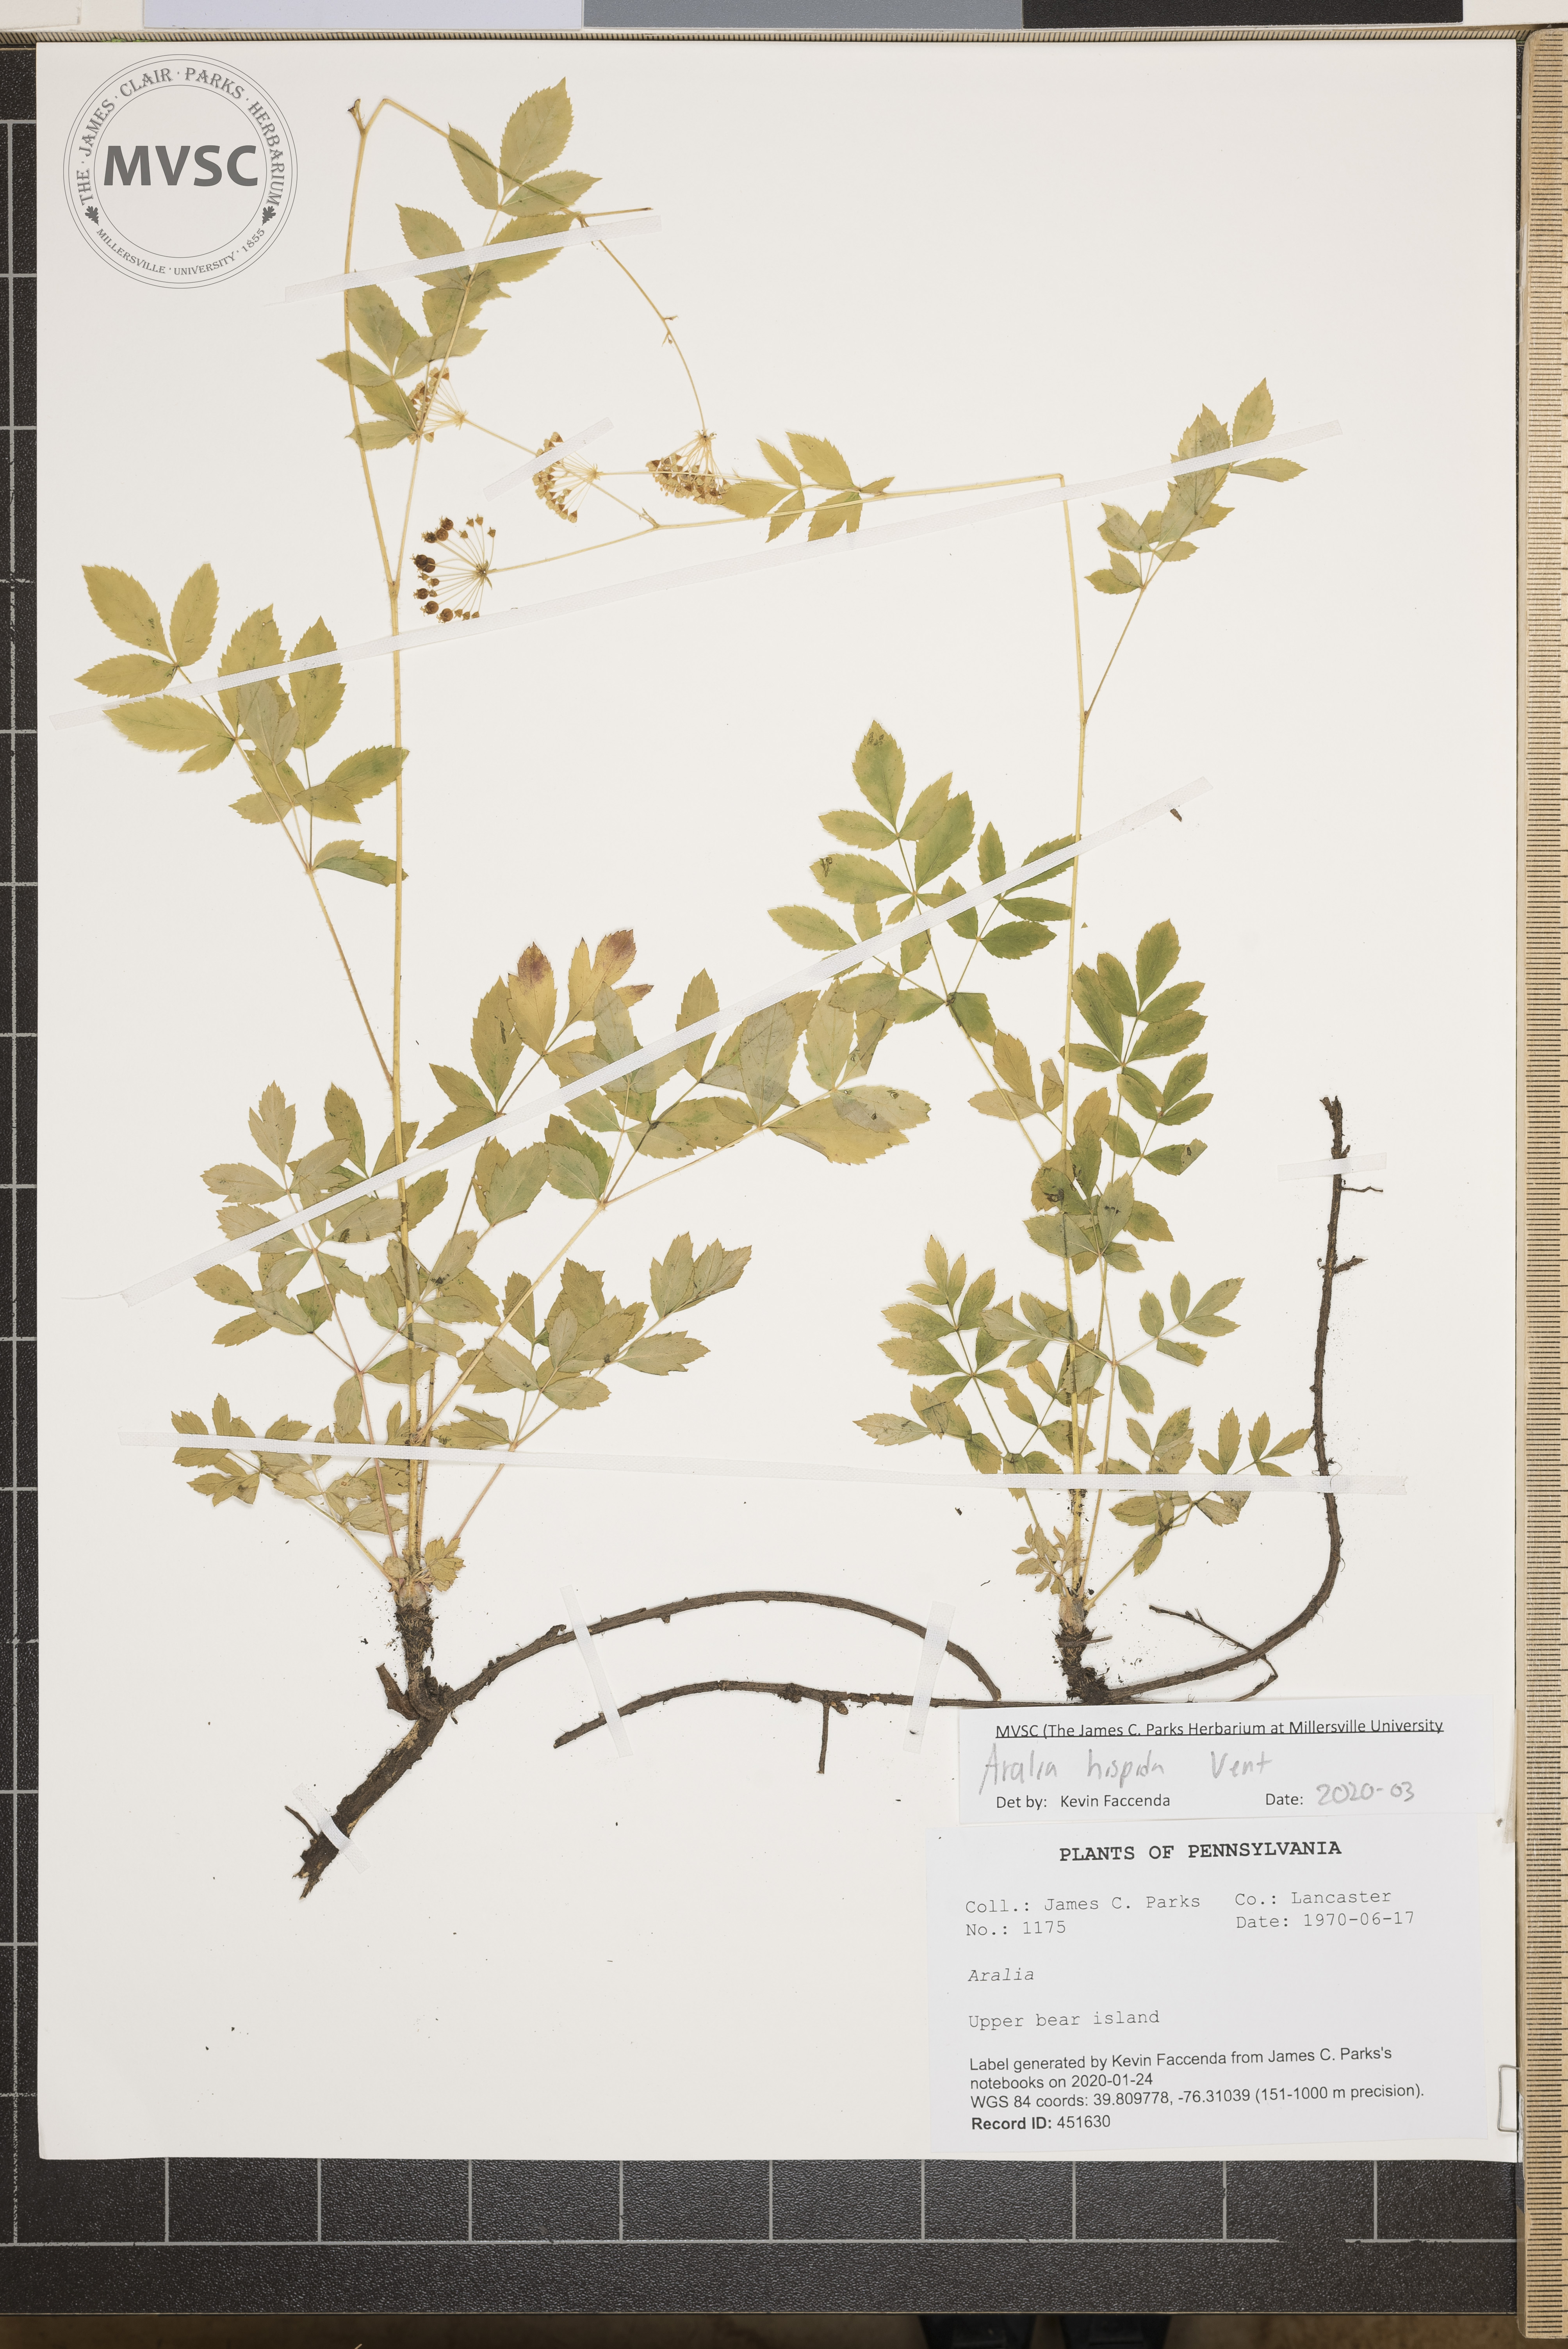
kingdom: Plantae
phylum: Tracheophyta
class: Magnoliopsida
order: Apiales
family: Araliaceae
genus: Aralia
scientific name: Aralia hispida
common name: Bristly sarsaparilla
